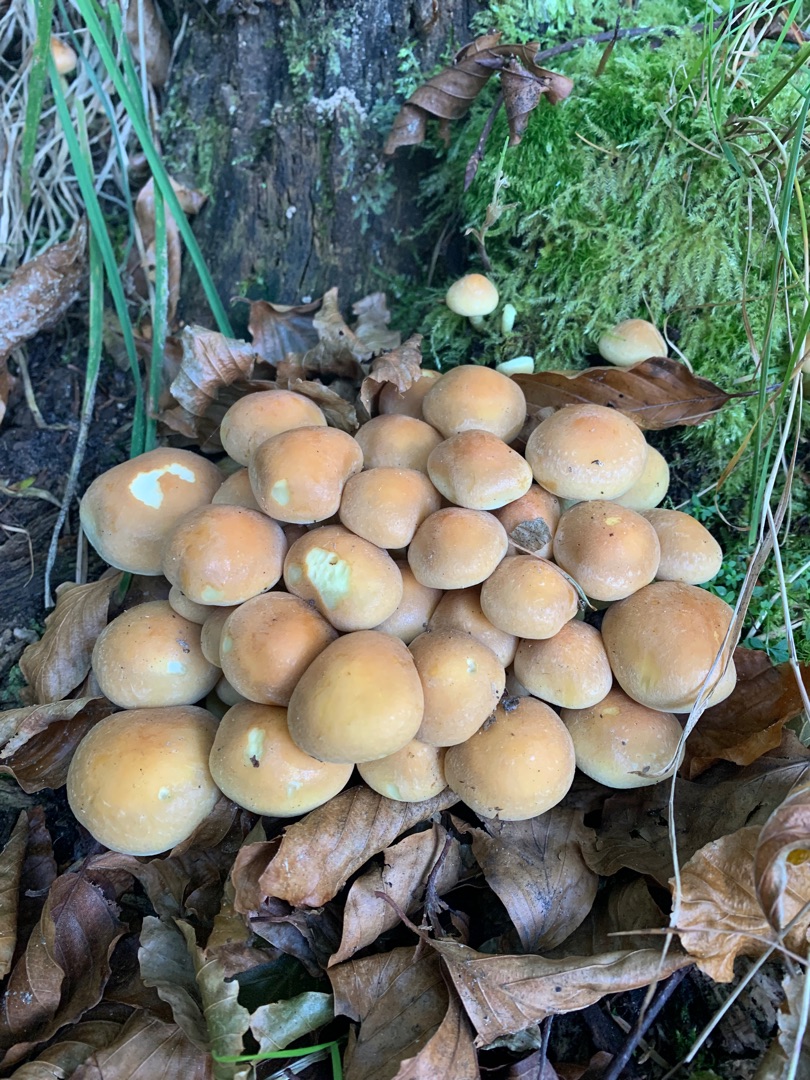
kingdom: Fungi
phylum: Basidiomycota
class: Agaricomycetes
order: Agaricales
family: Strophariaceae
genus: Hypholoma
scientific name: Hypholoma fasciculare
